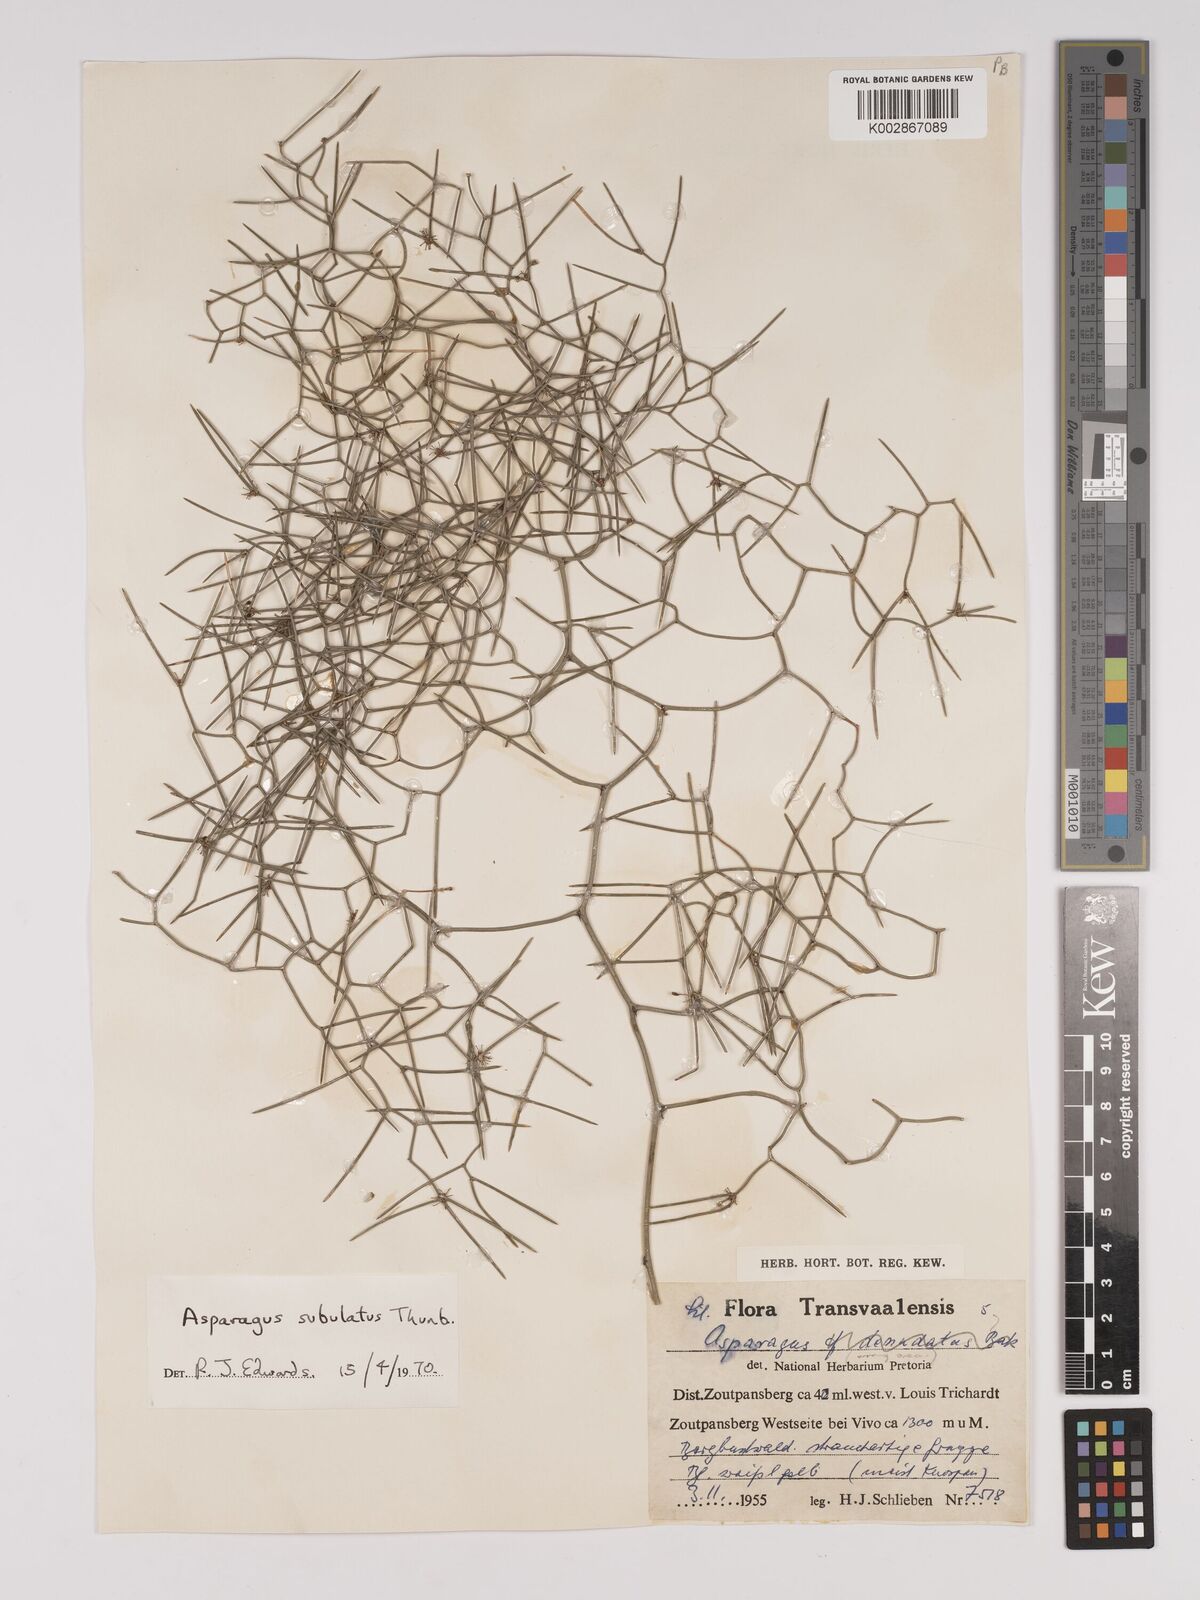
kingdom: Plantae
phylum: Tracheophyta
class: Liliopsida
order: Asparagales
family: Asparagaceae
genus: Asparagus
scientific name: Asparagus subulatus
